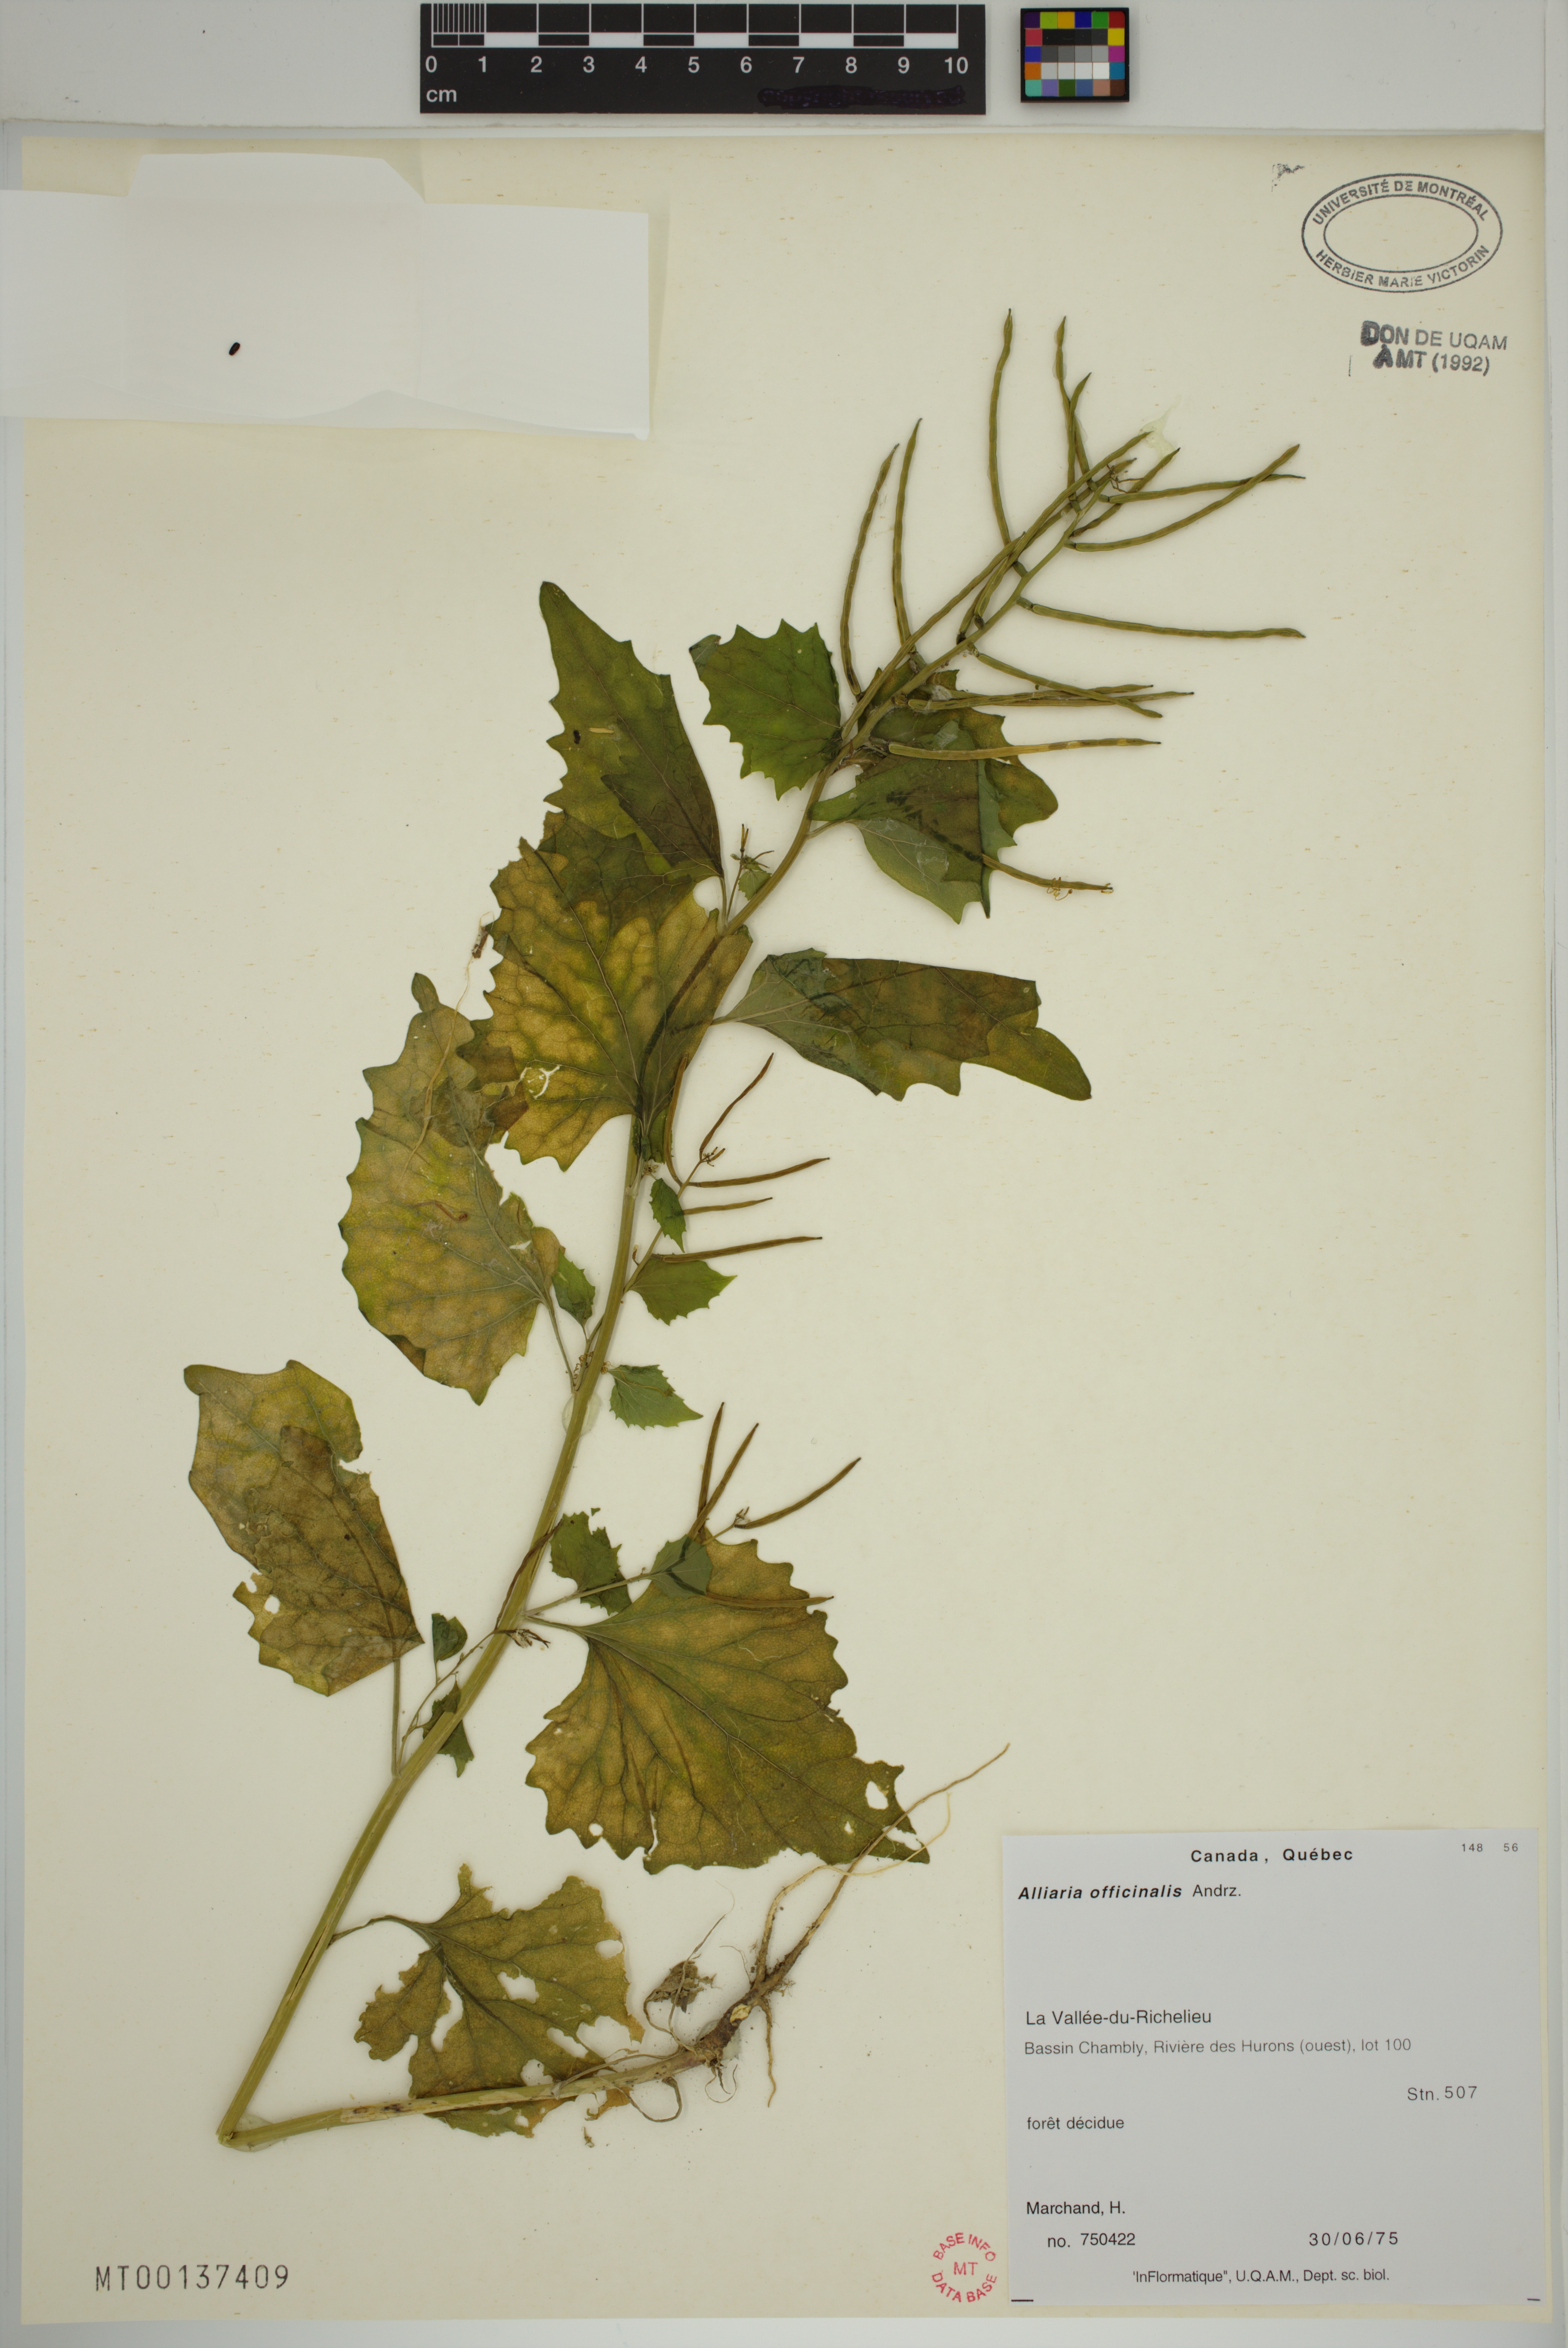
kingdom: Plantae
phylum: Tracheophyta
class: Magnoliopsida
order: Brassicales
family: Brassicaceae
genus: Alliaria
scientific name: Alliaria petiolata
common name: Garlic mustard
